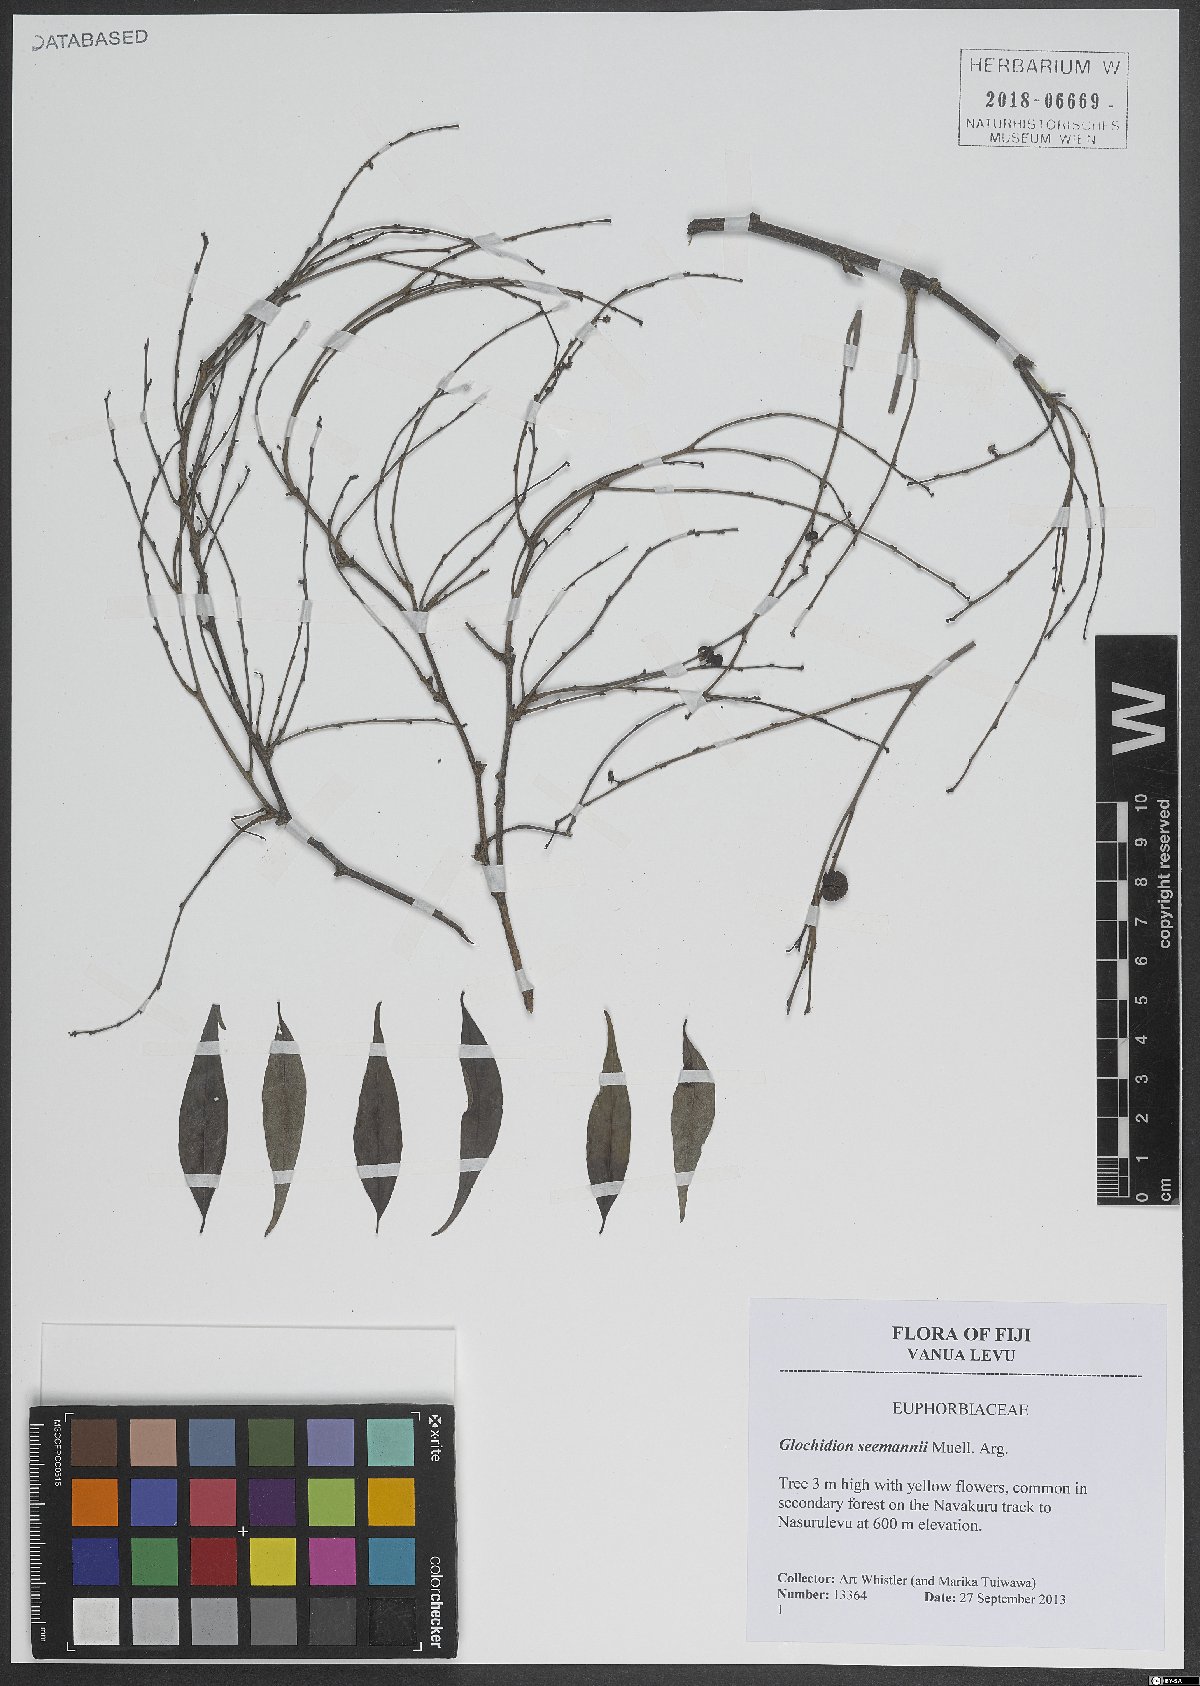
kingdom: Plantae
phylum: Tracheophyta
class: Magnoliopsida
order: Malpighiales
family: Phyllanthaceae
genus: Glochidion
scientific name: Glochidion seemannii
